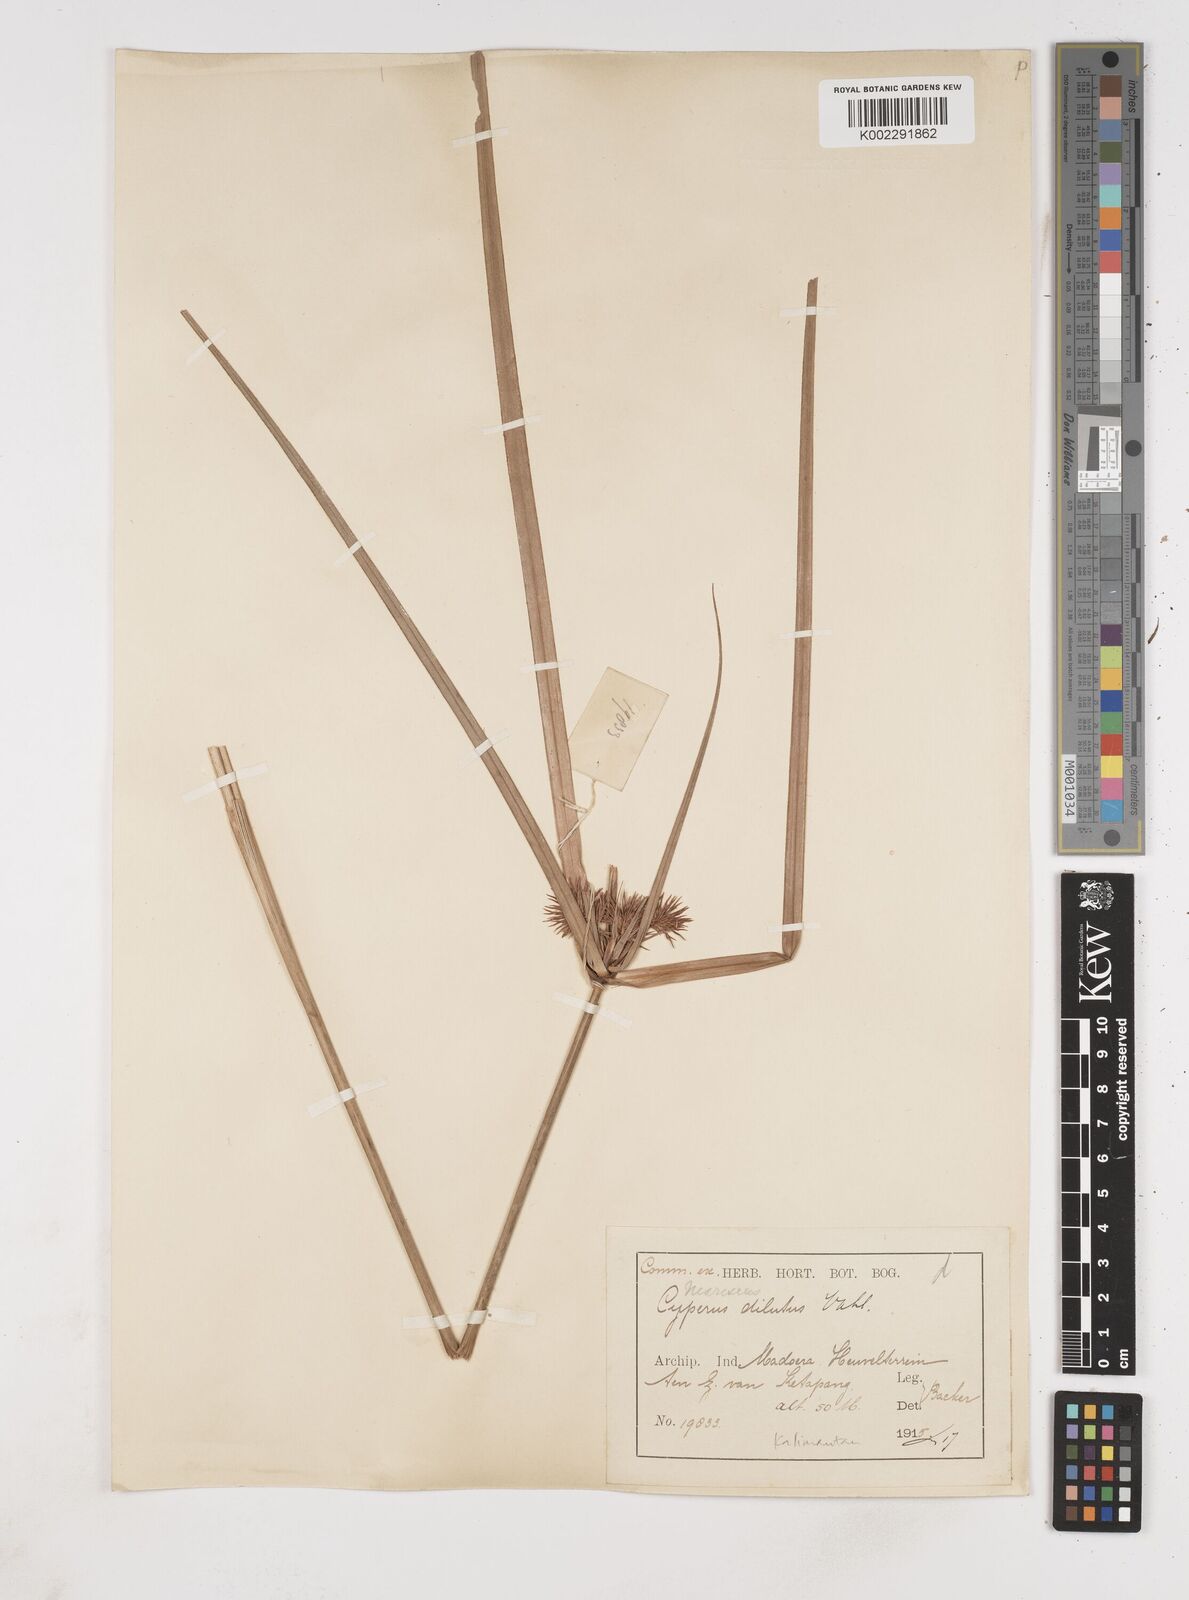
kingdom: Plantae
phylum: Tracheophyta
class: Liliopsida
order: Poales
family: Cyperaceae
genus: Cyperus
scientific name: Cyperus compactus
